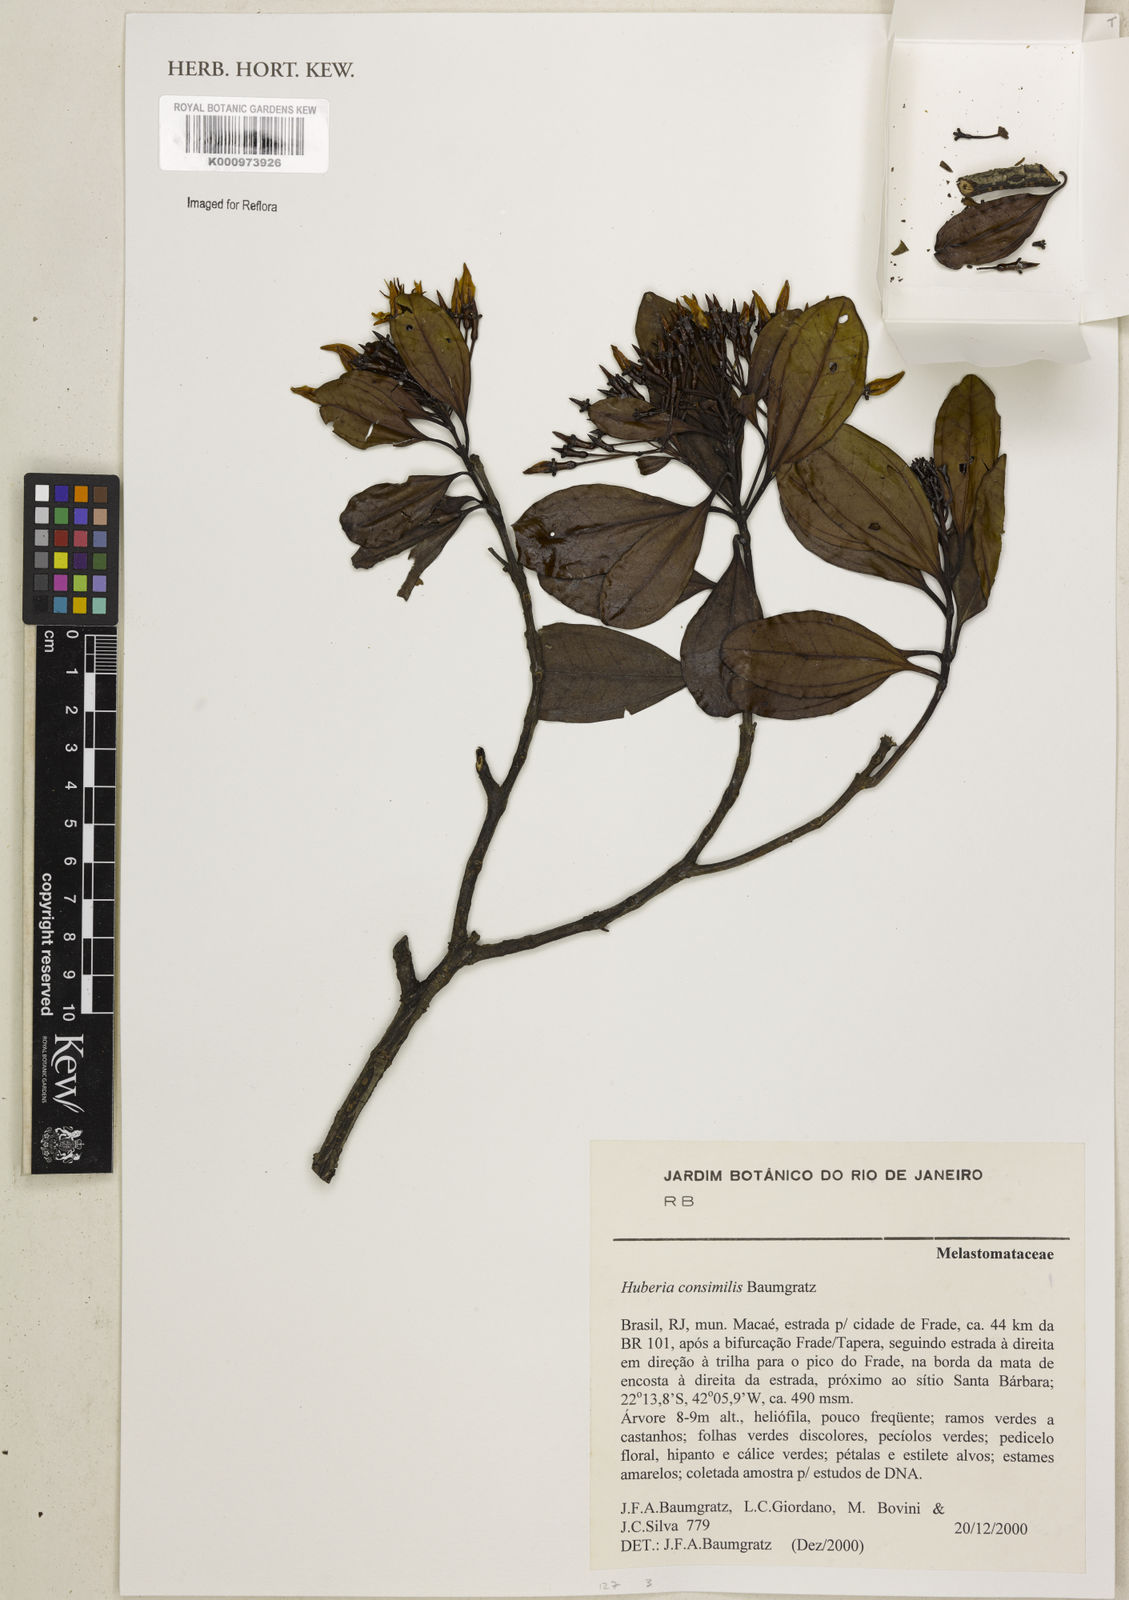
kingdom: Plantae
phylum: Tracheophyta
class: Magnoliopsida
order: Myrtales
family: Melastomataceae
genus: Huberia
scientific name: Huberia consimilis
